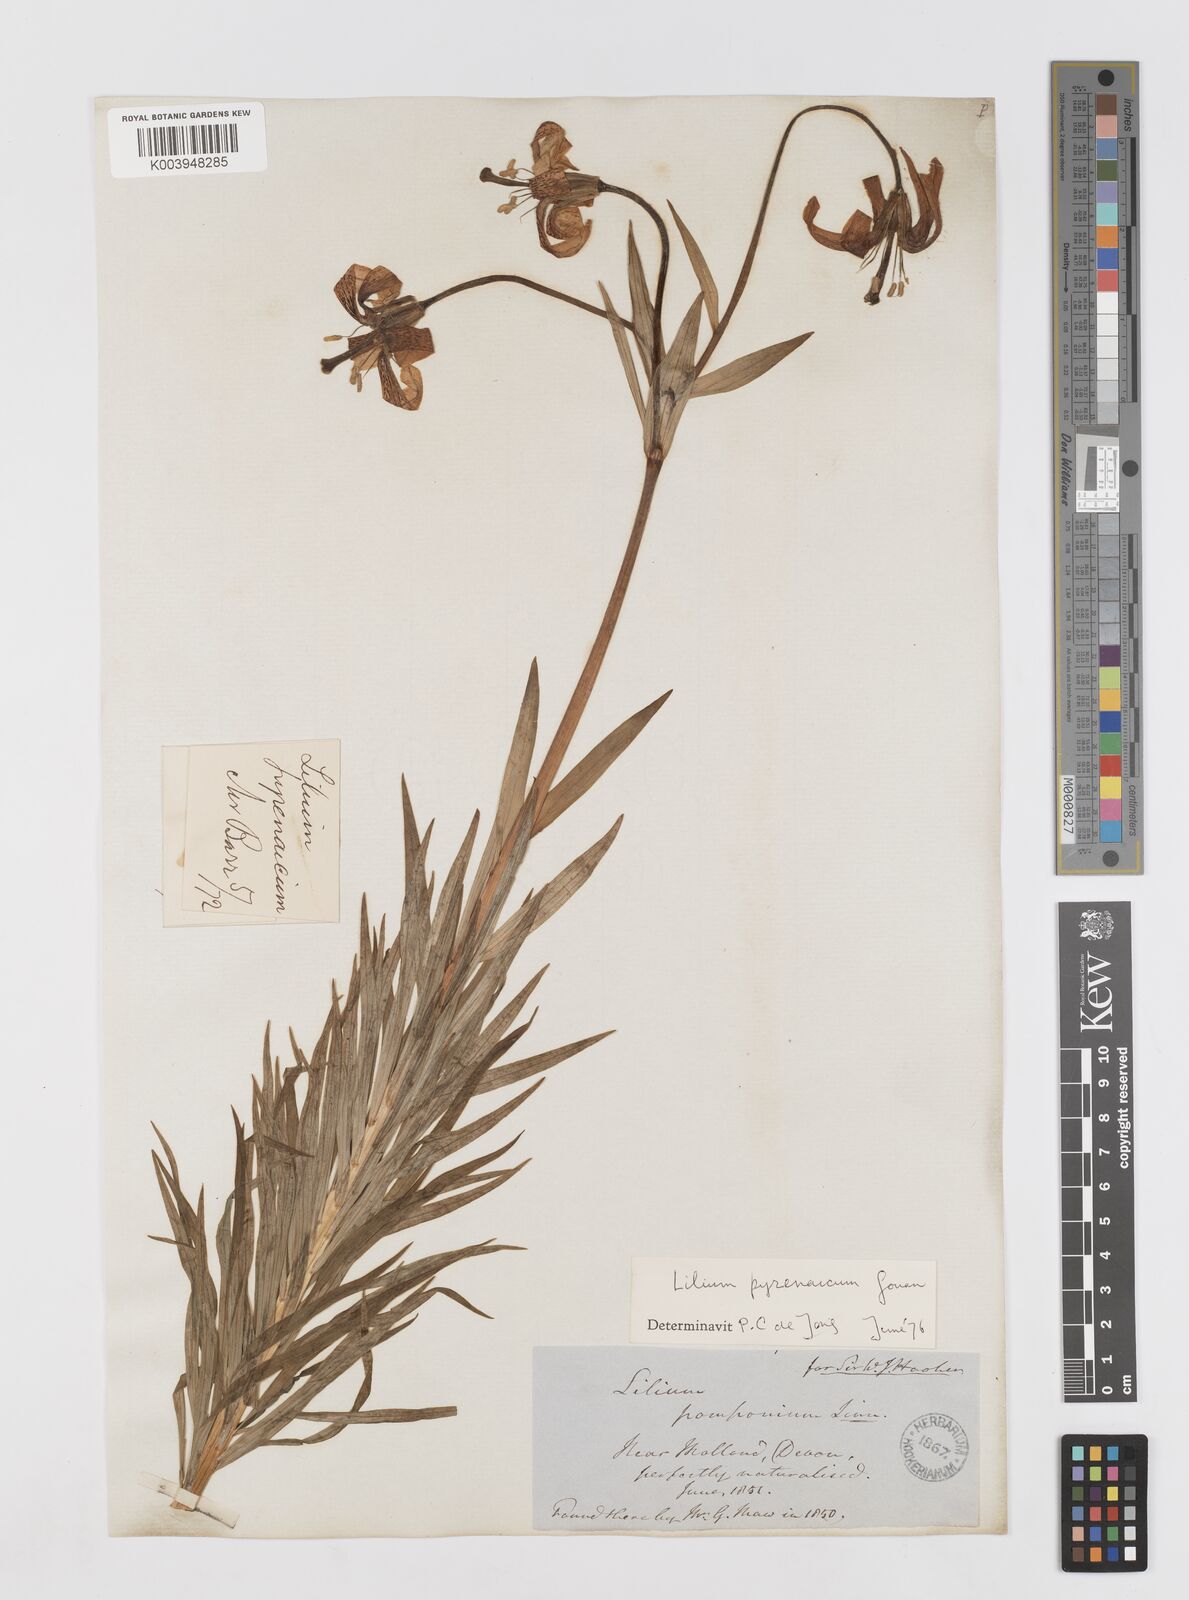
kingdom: Plantae
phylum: Tracheophyta
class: Liliopsida
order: Liliales
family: Liliaceae
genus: Lilium
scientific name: Lilium pyrenaicum
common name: Pyrenean lily
